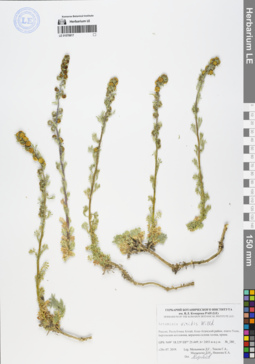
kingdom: Plantae
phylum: Tracheophyta
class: Magnoliopsida
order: Asterales
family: Asteraceae
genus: Artemisia
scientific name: Artemisia viridis
